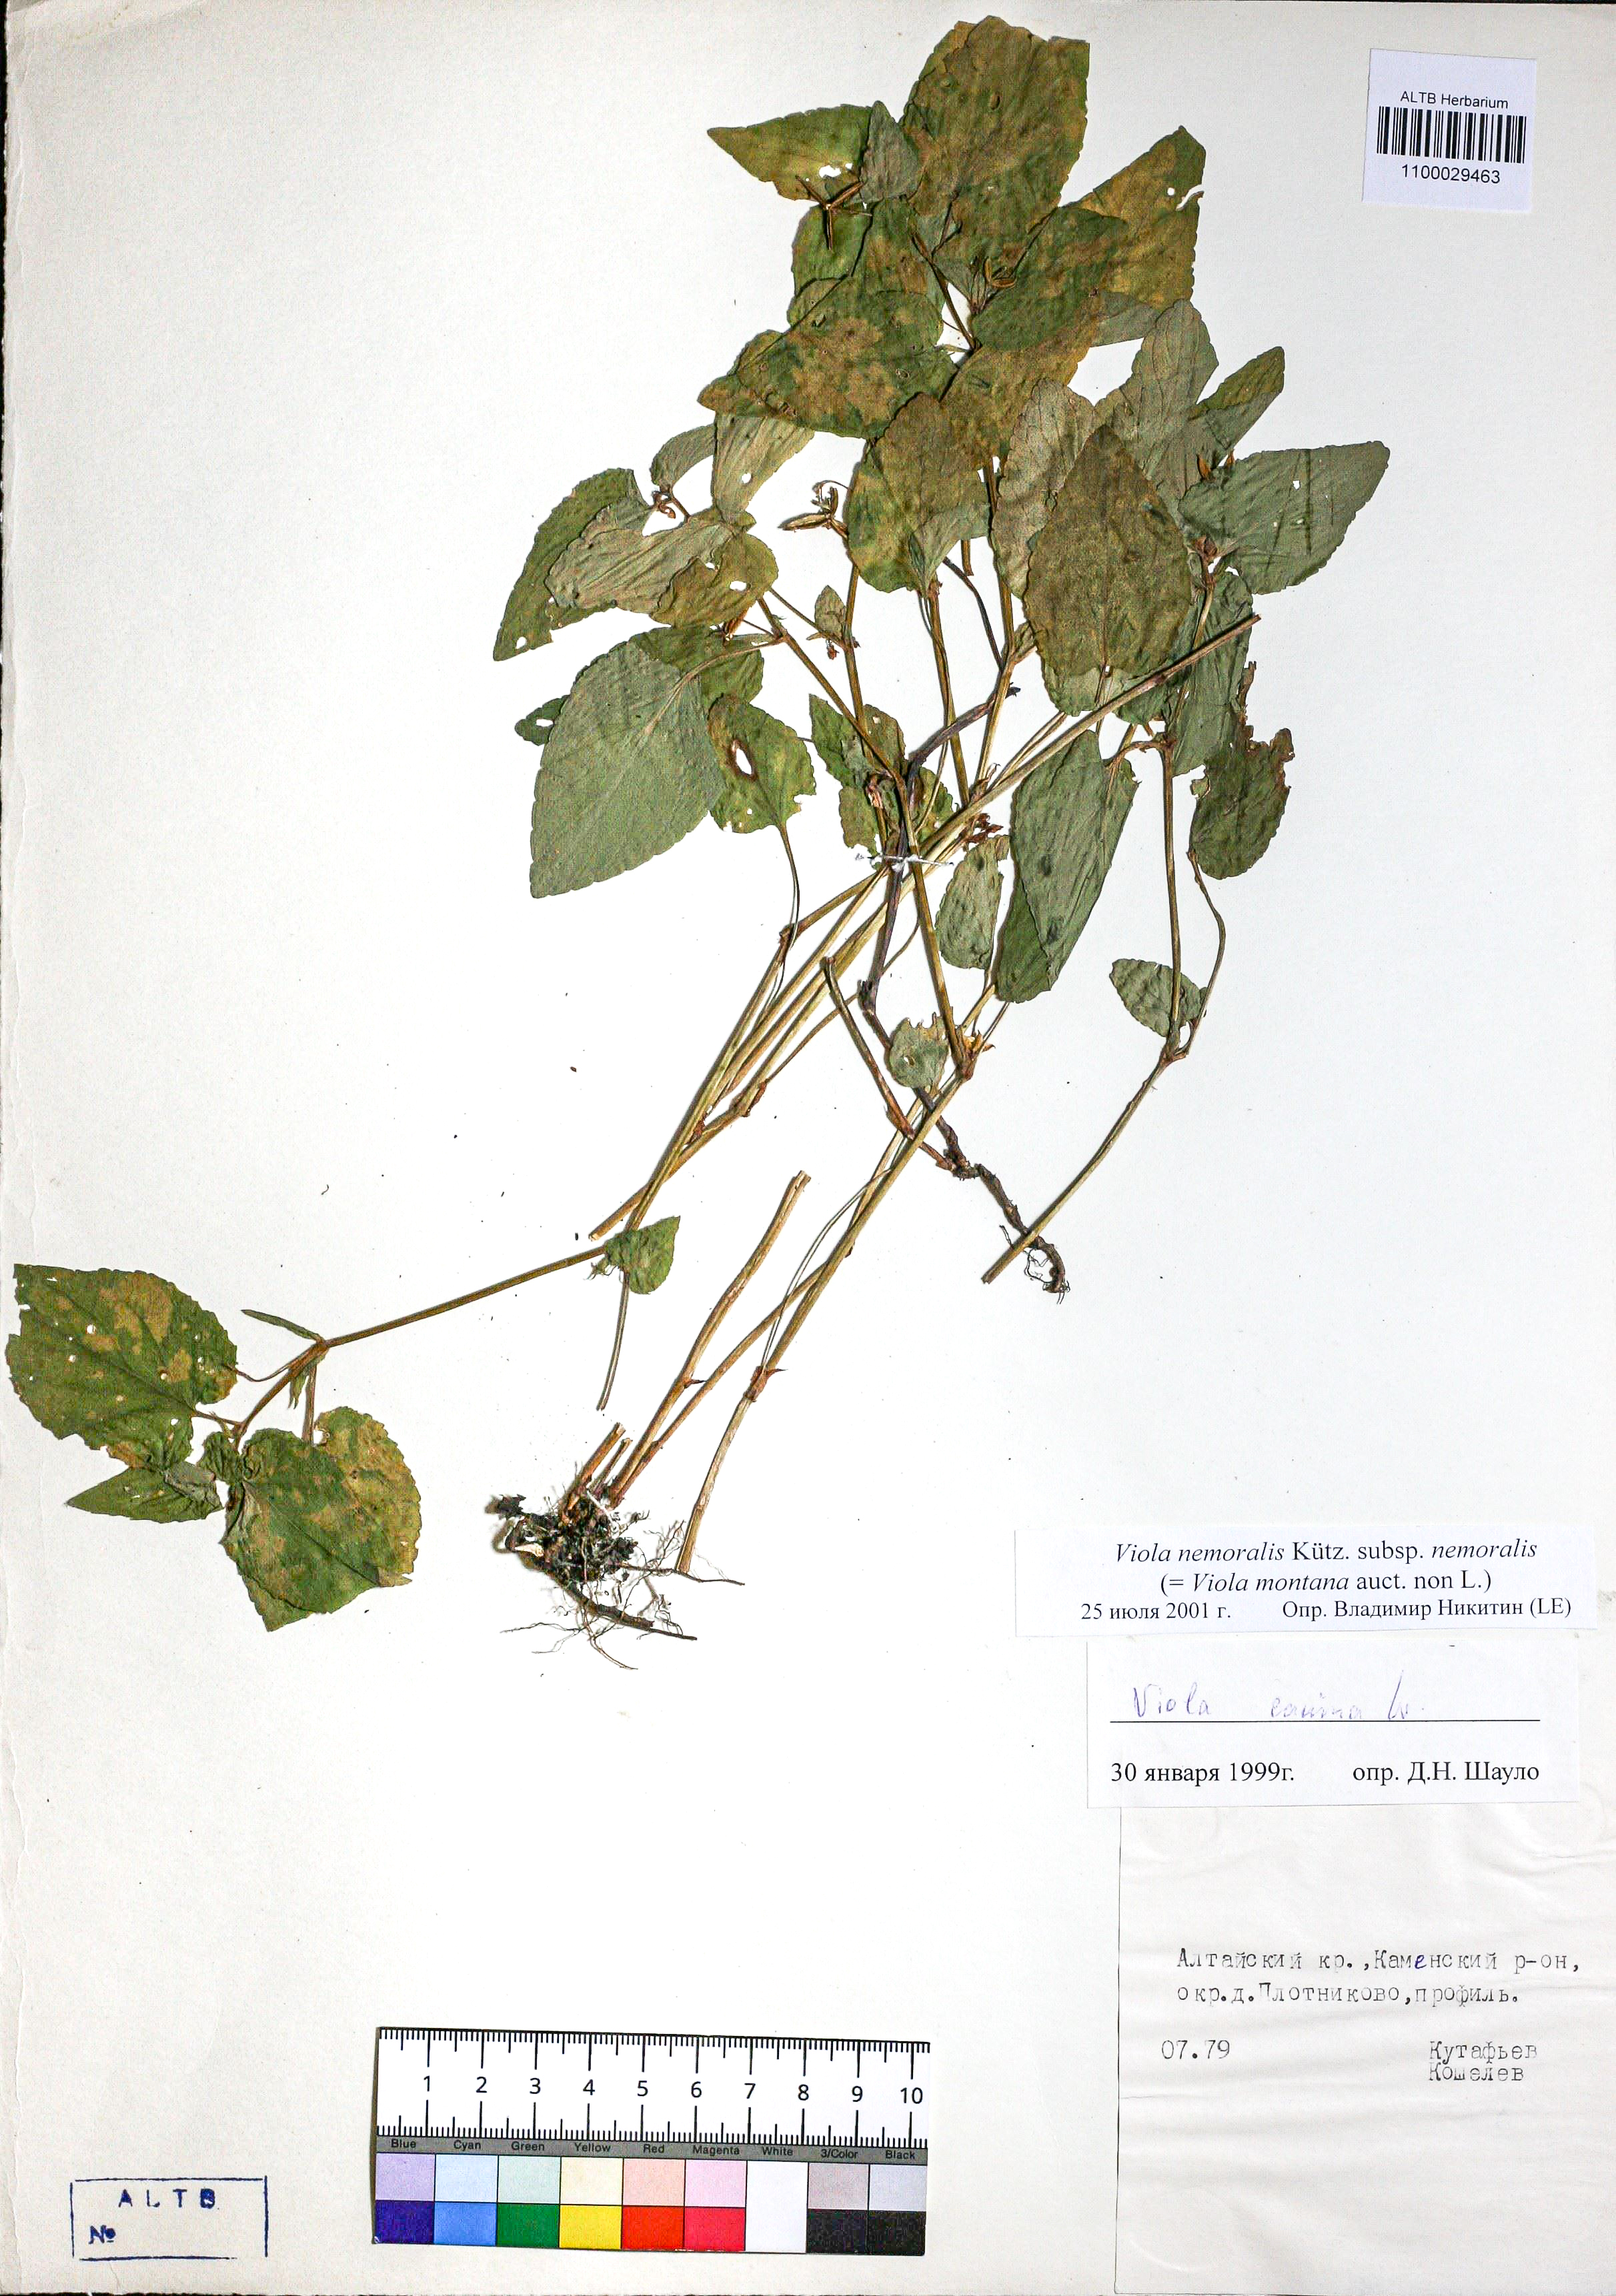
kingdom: Plantae
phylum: Tracheophyta
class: Magnoliopsida
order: Malpighiales
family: Violaceae
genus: Viola
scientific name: Viola ruppii
